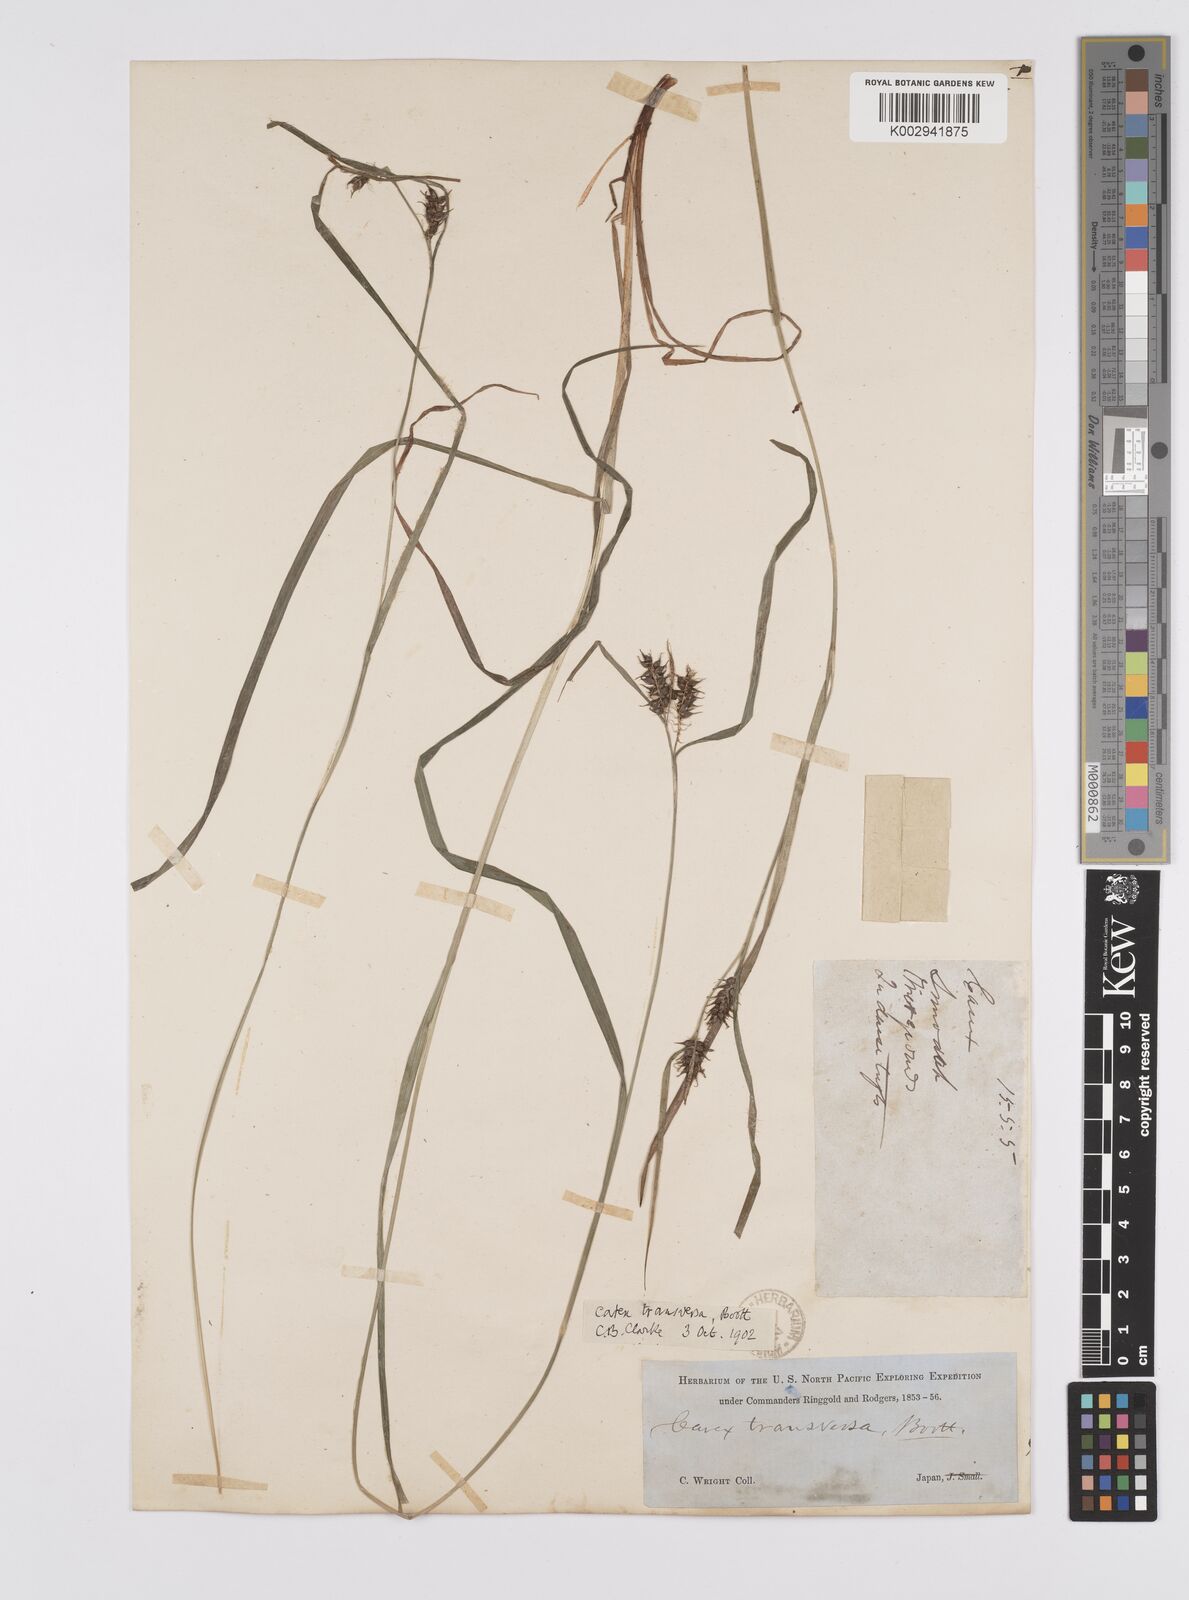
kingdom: Plantae
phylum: Tracheophyta
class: Liliopsida
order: Poales
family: Cyperaceae
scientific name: Cyperaceae
